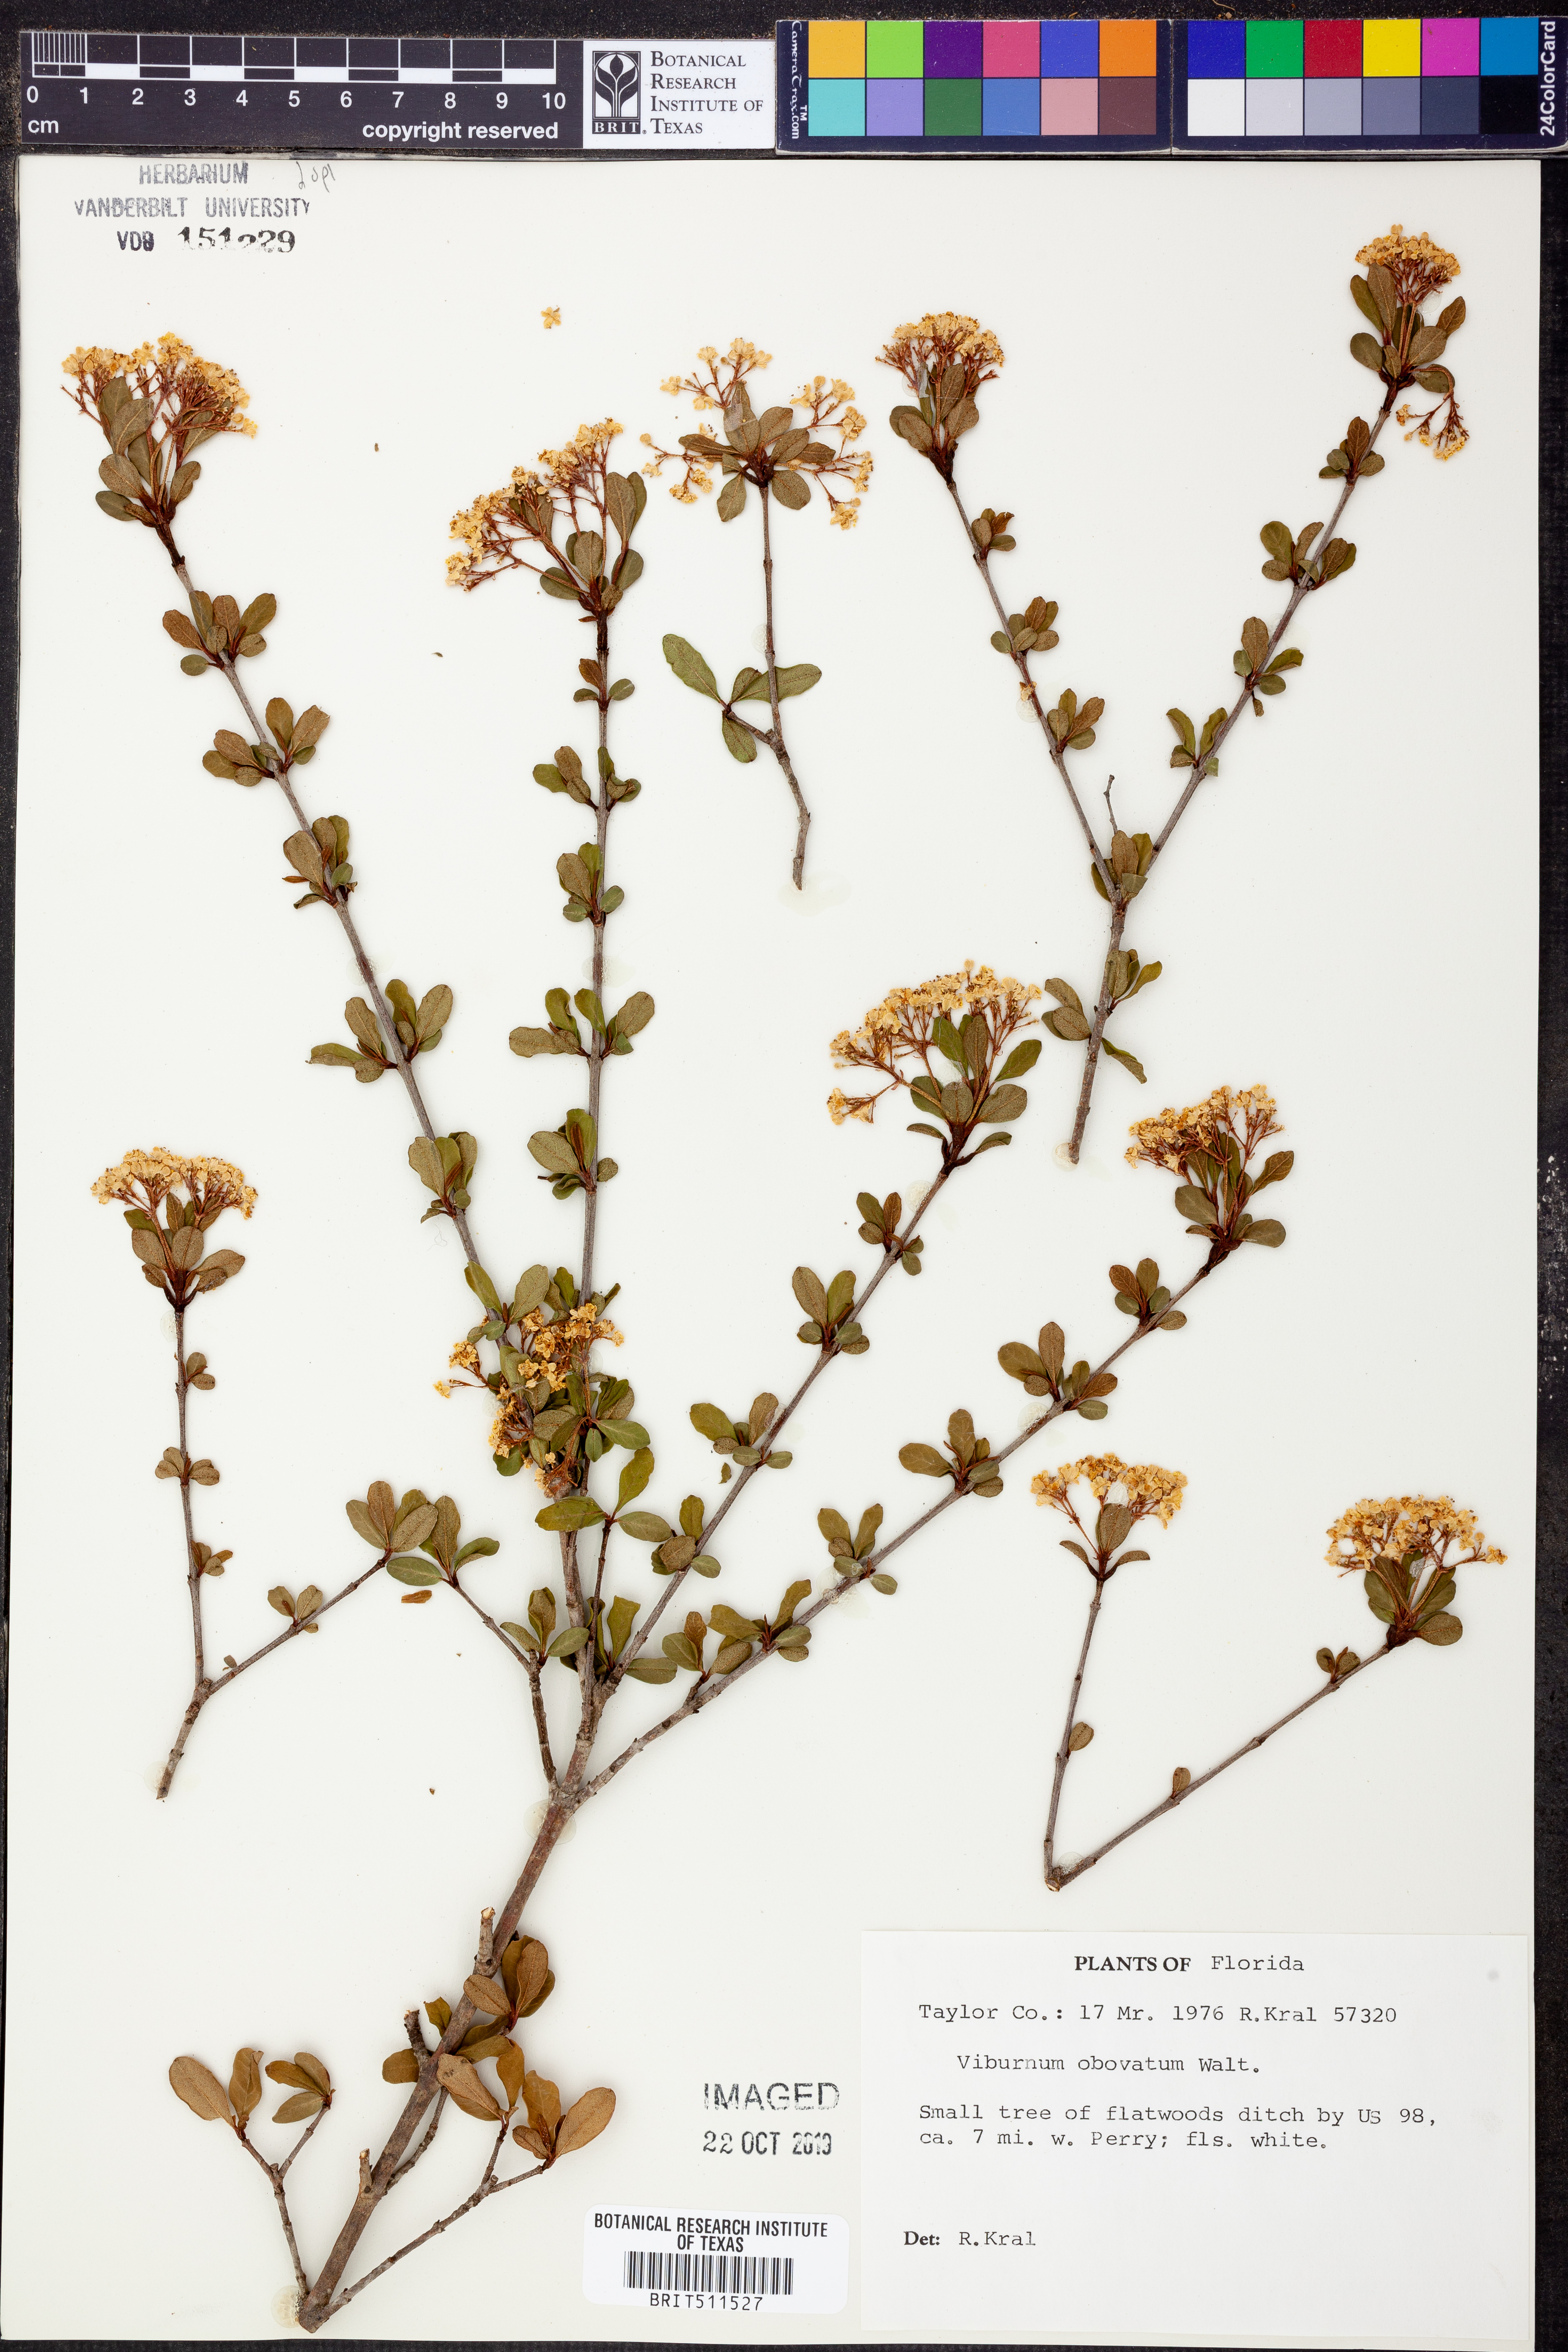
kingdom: Plantae
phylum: Tracheophyta
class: Magnoliopsida
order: Dipsacales
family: Viburnaceae
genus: Viburnum
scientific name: Viburnum obovatum
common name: Walter's viburnum
